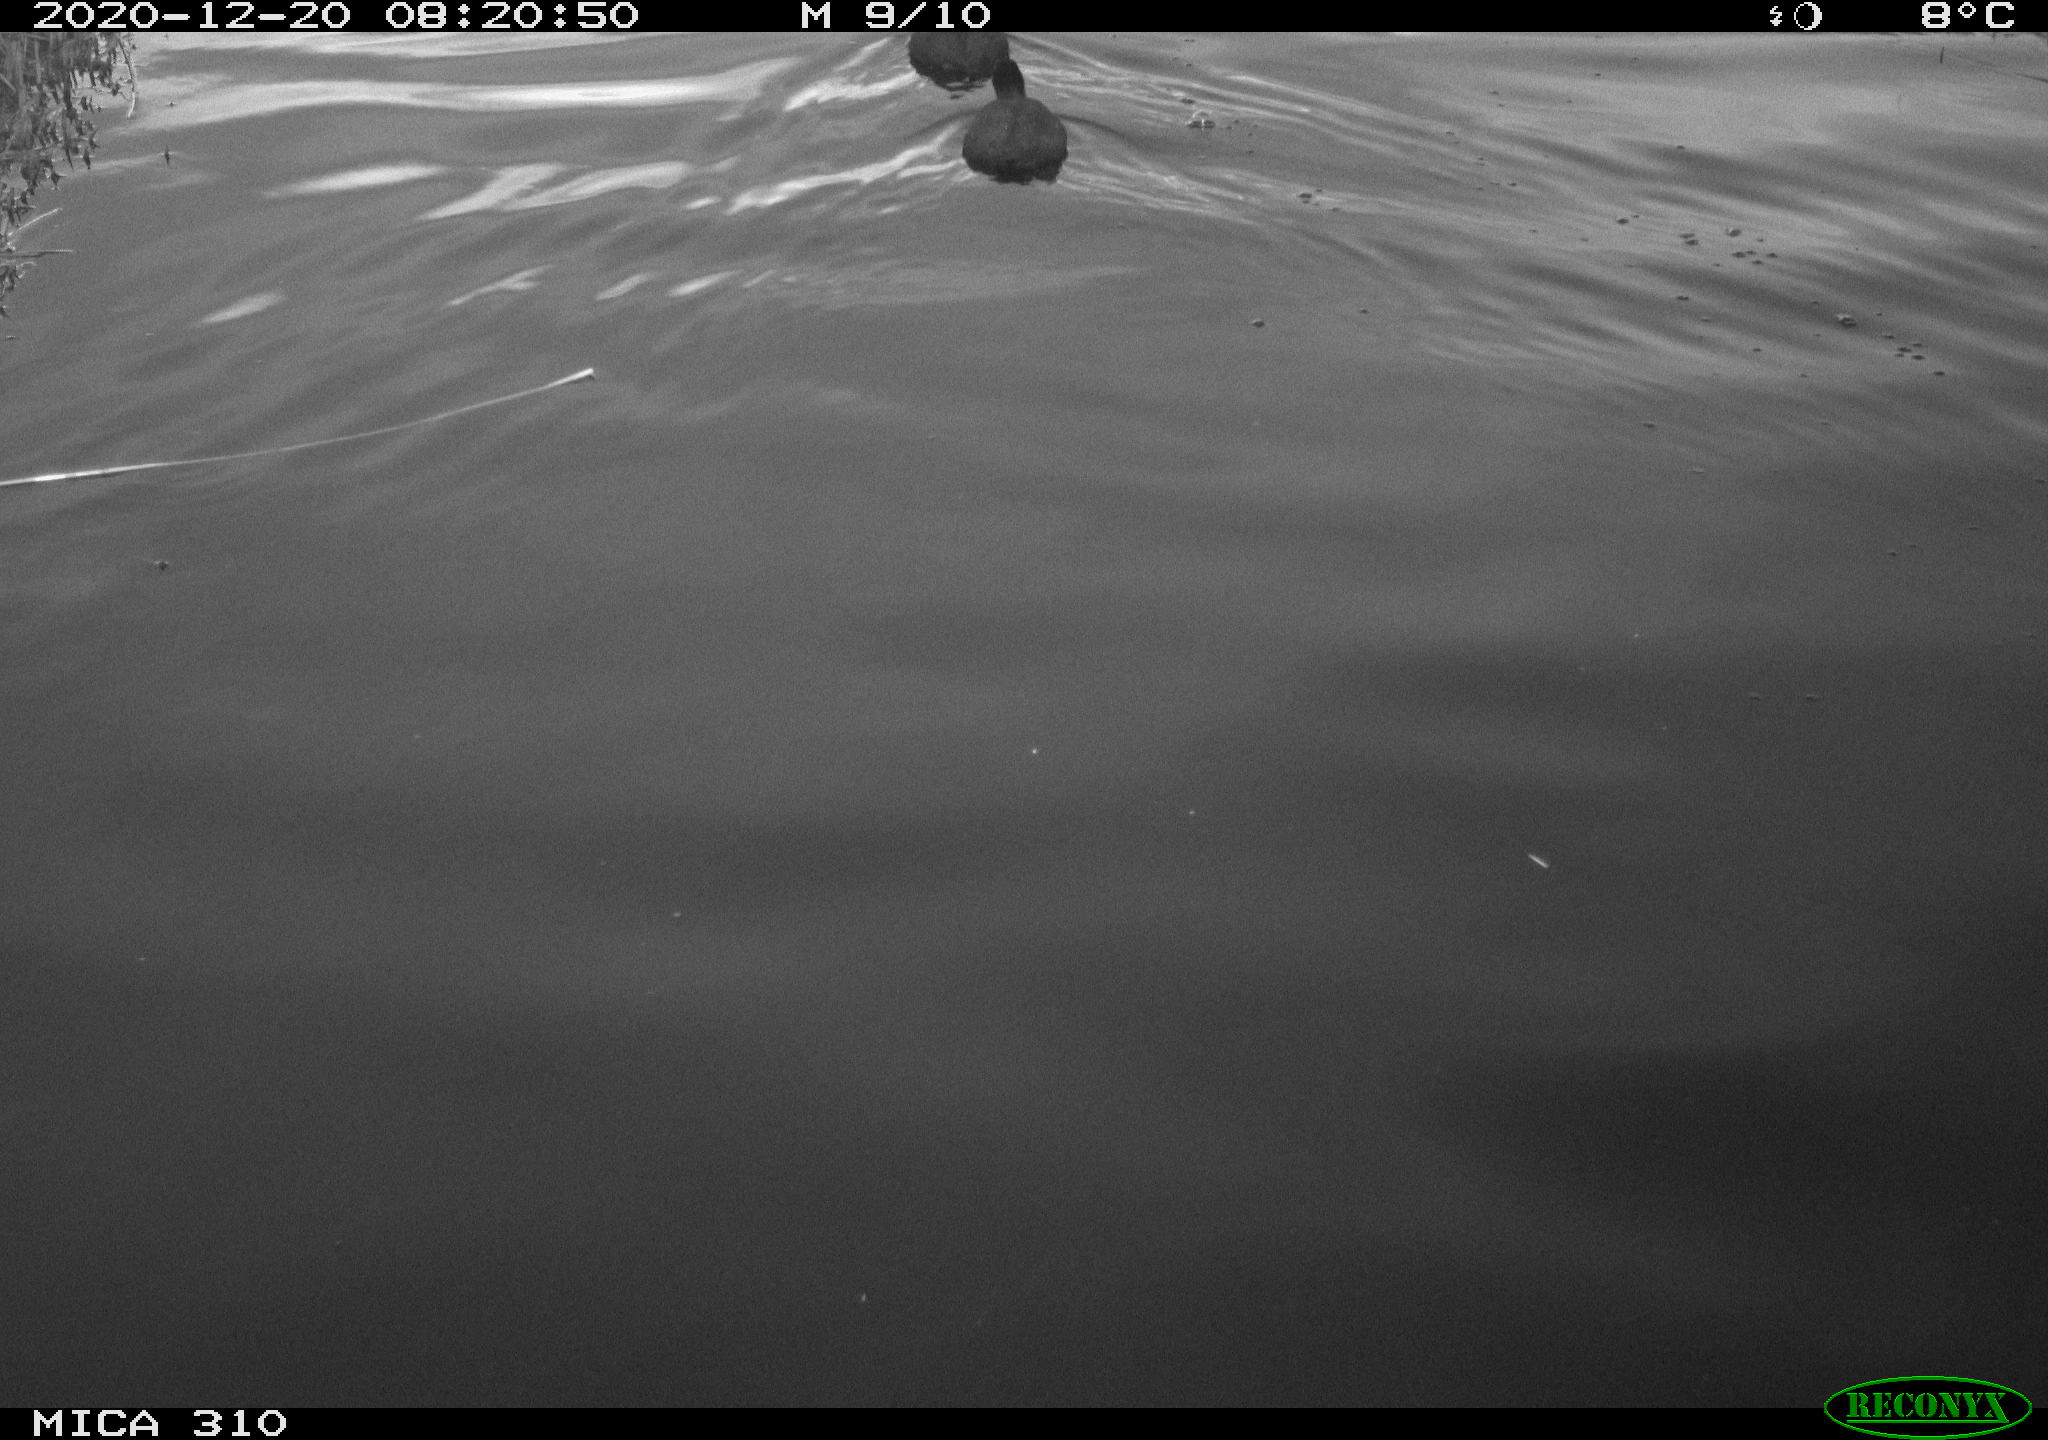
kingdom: Animalia
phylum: Chordata
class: Aves
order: Gruiformes
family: Rallidae
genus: Fulica
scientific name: Fulica atra
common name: Eurasian coot
